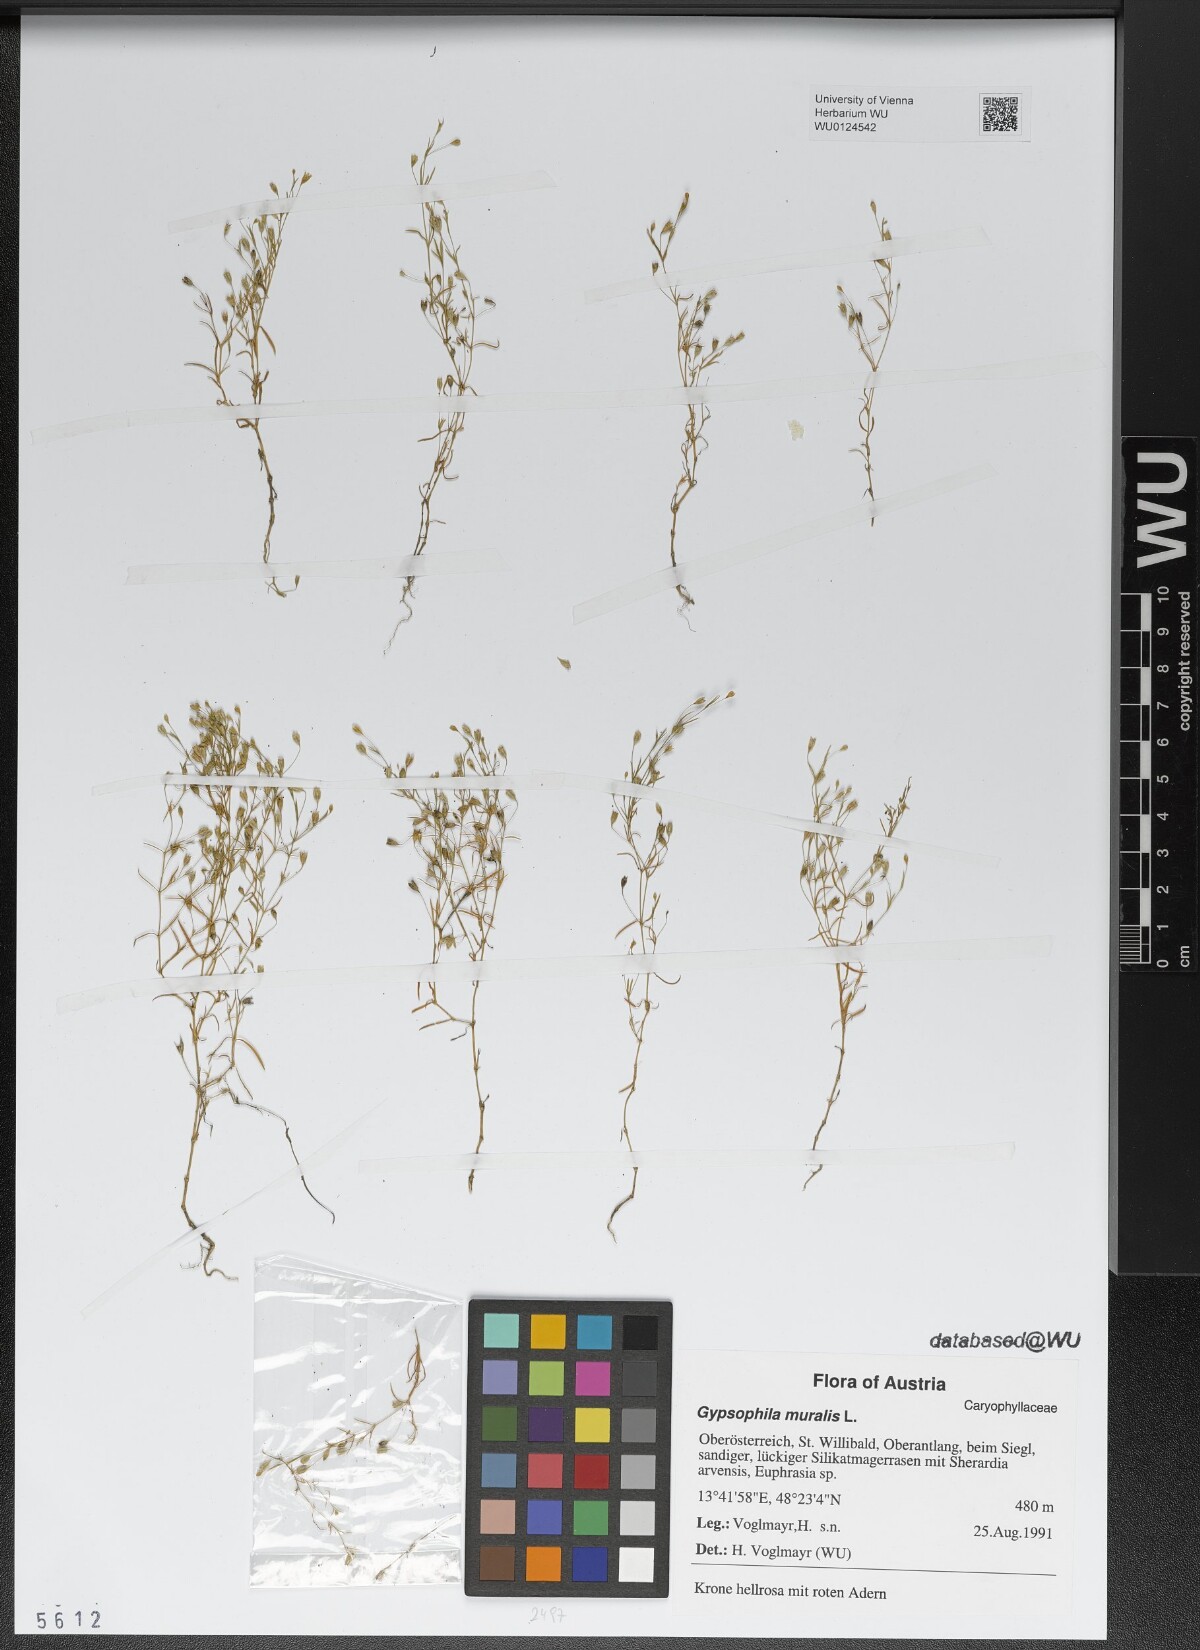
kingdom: Plantae
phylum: Tracheophyta
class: Magnoliopsida
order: Caryophyllales
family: Caryophyllaceae
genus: Psammophiliella
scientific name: Psammophiliella muralis
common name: Cushion baby's-breath
